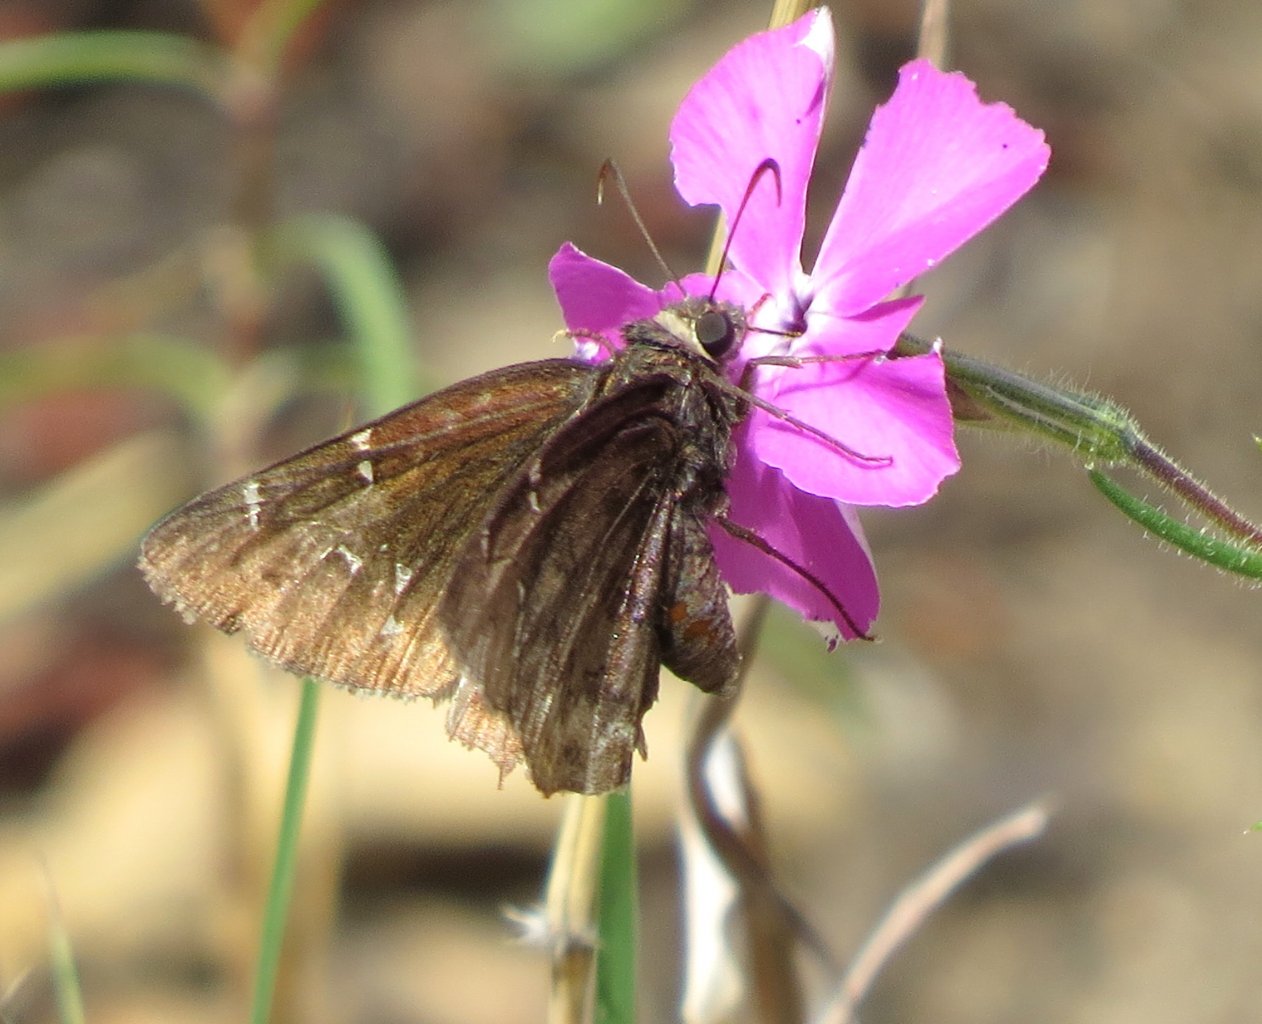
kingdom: Animalia
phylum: Arthropoda
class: Insecta
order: Lepidoptera
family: Hesperiidae
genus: Autochton
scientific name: Autochton
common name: Northern Cloudywing
